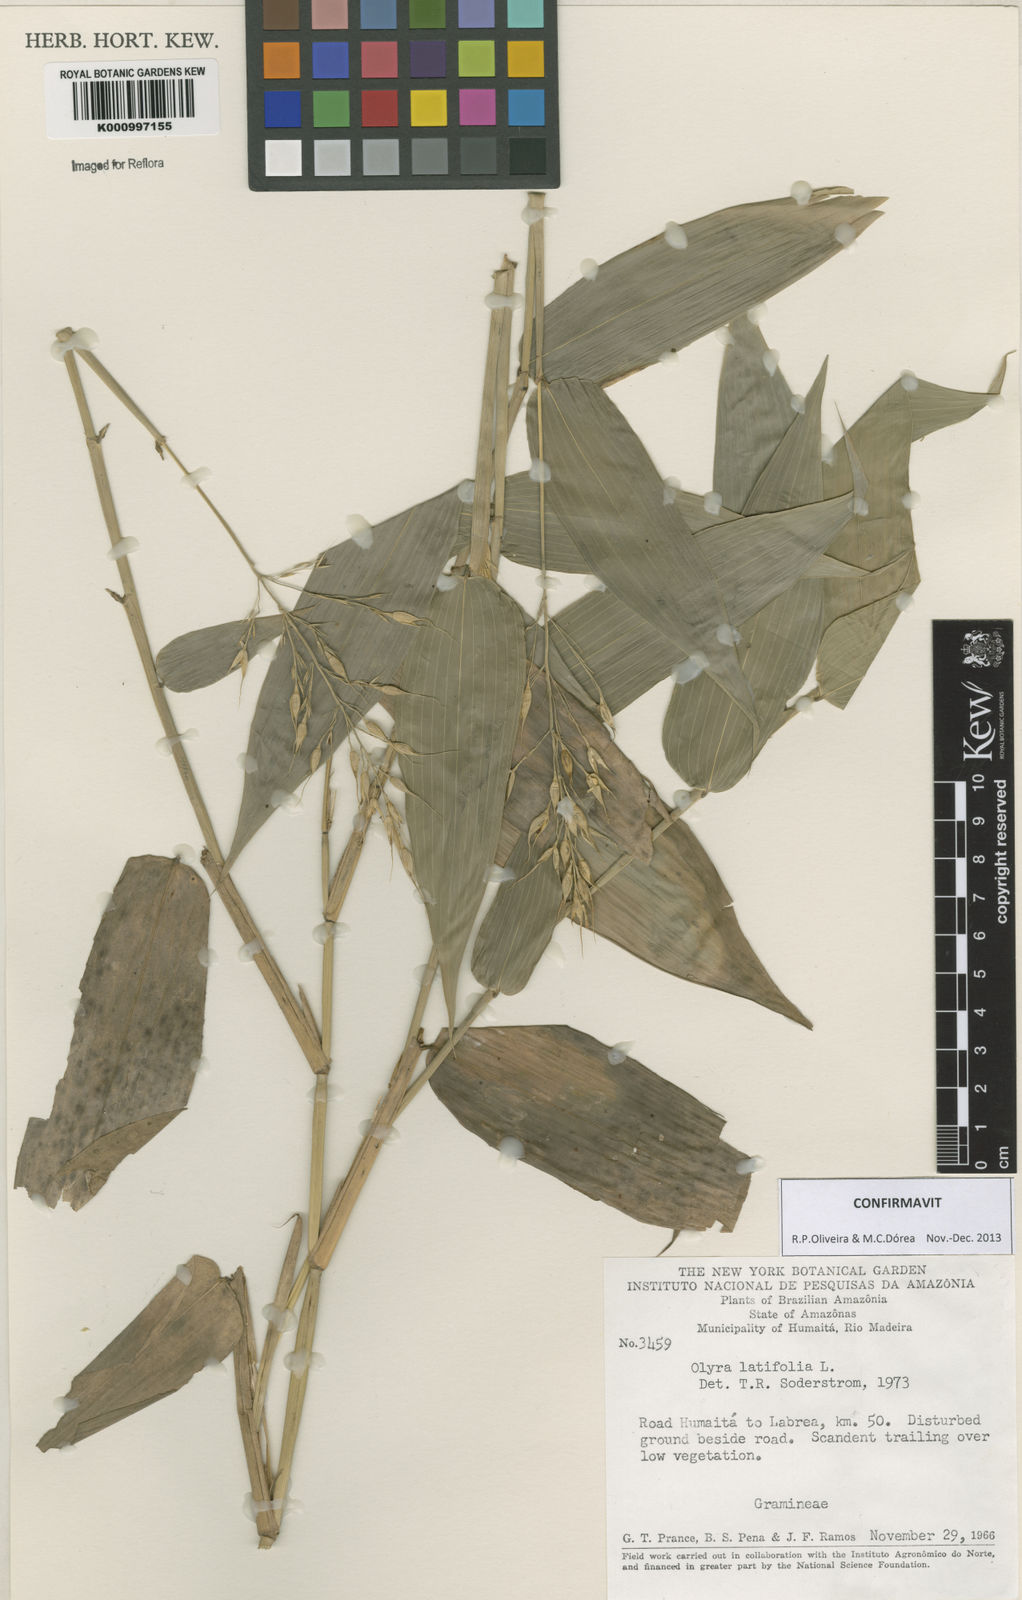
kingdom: Plantae
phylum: Tracheophyta
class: Liliopsida
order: Poales
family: Poaceae
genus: Olyra
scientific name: Olyra latifolia
